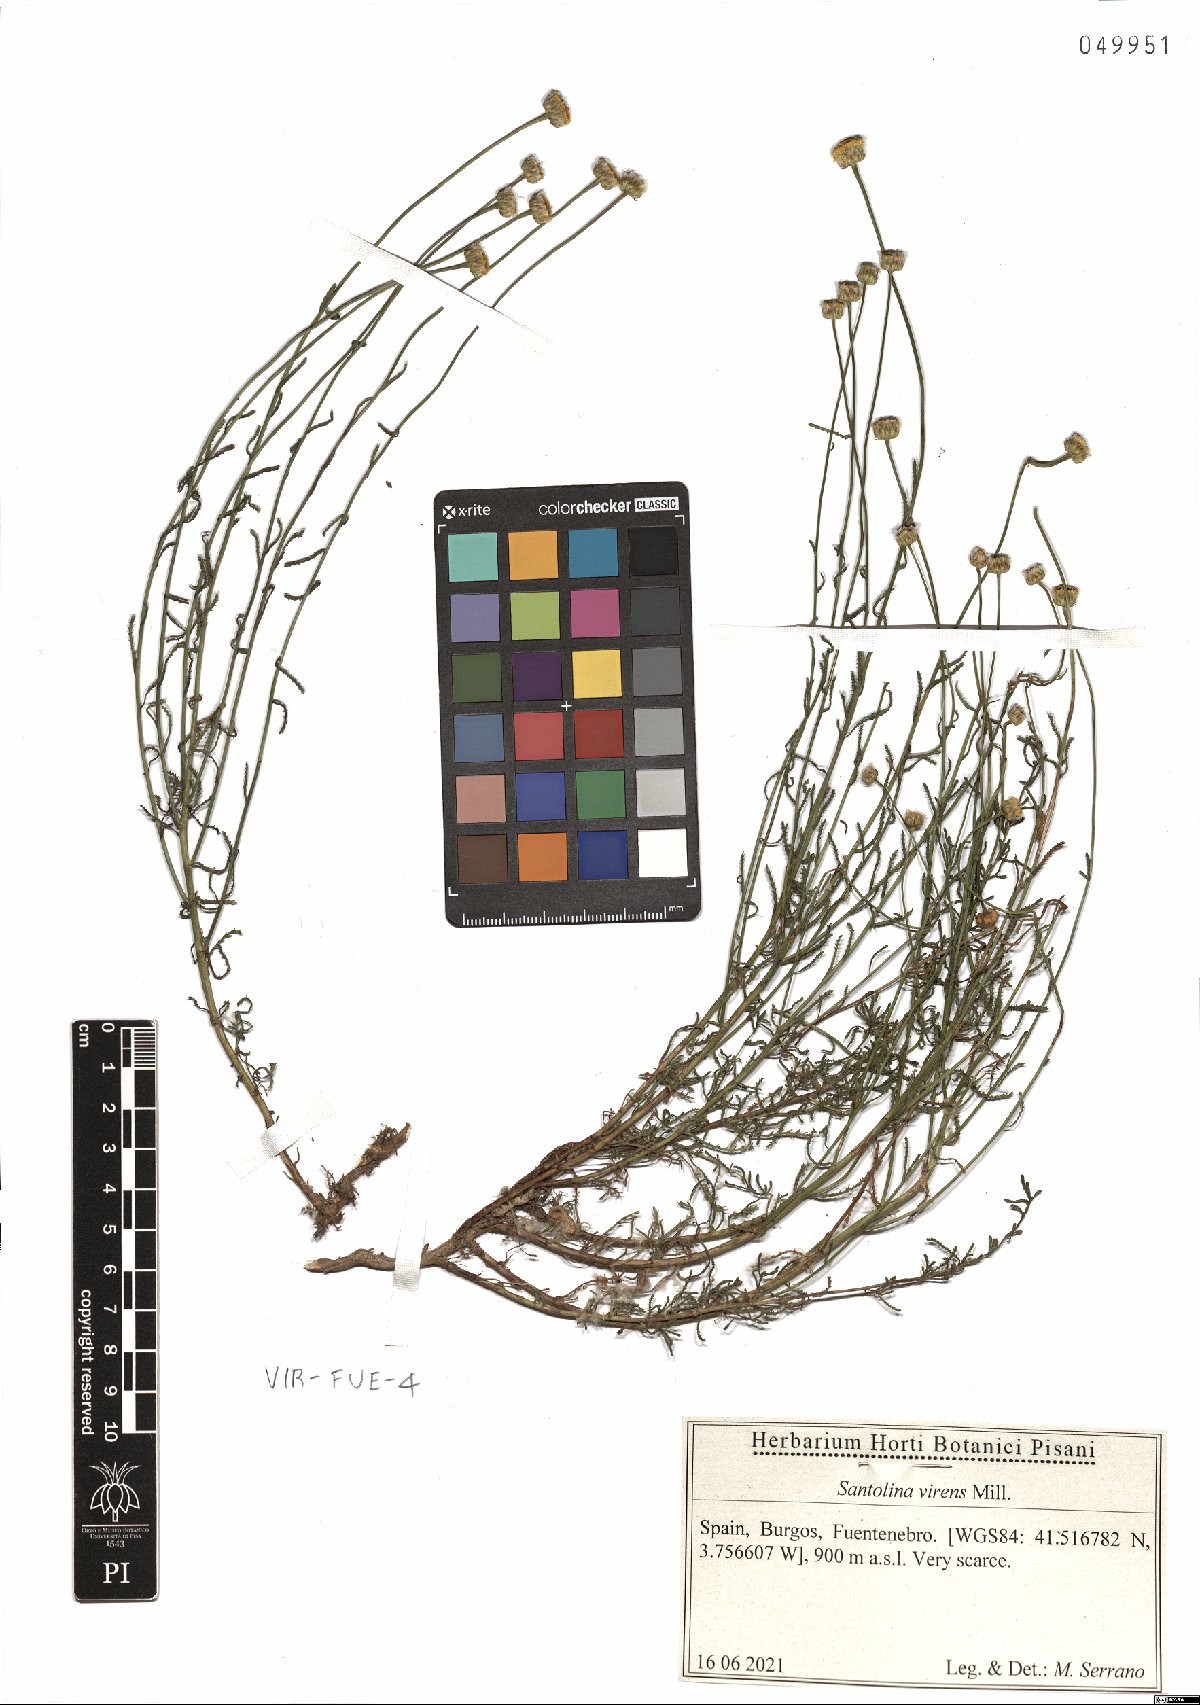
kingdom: Plantae
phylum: Tracheophyta
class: Magnoliopsida
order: Asterales
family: Asteraceae
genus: Santolina
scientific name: Santolina virens
